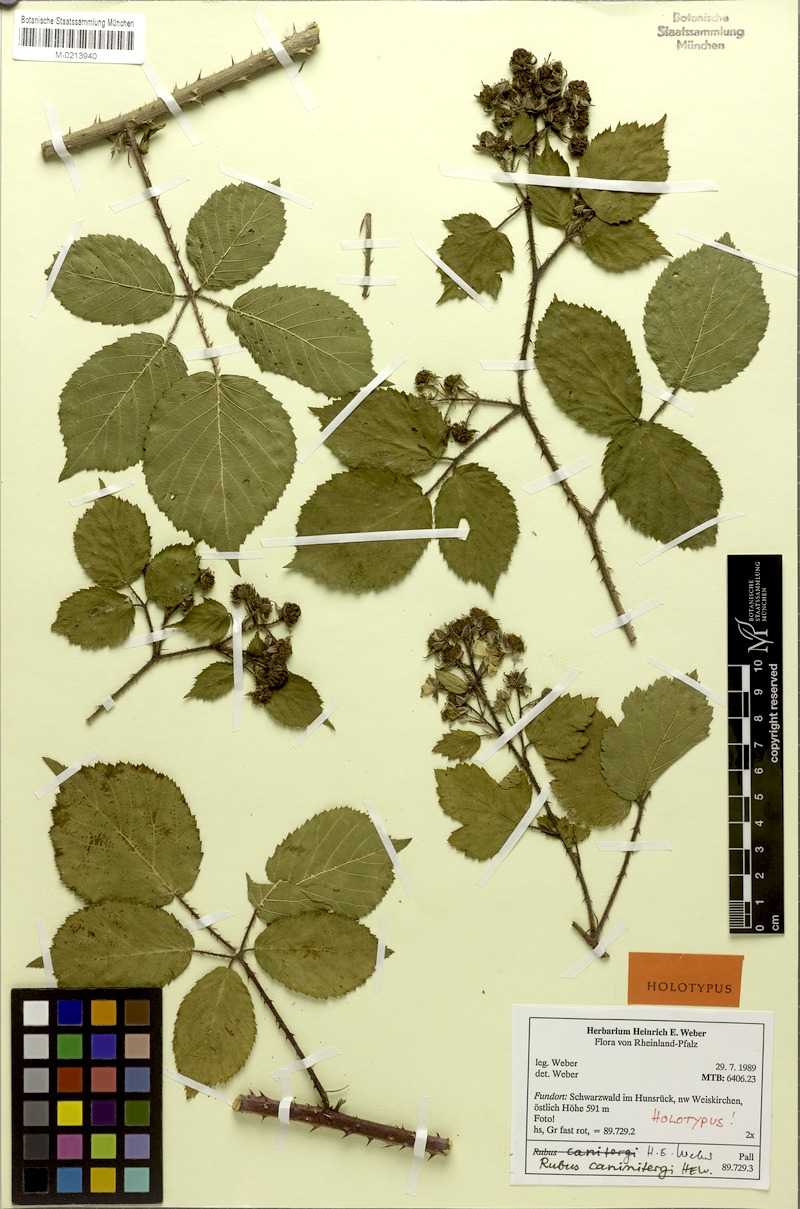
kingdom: Plantae
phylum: Tracheophyta
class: Magnoliopsida
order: Rosales
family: Rosaceae
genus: Rubus
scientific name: Rubus caninitergi
